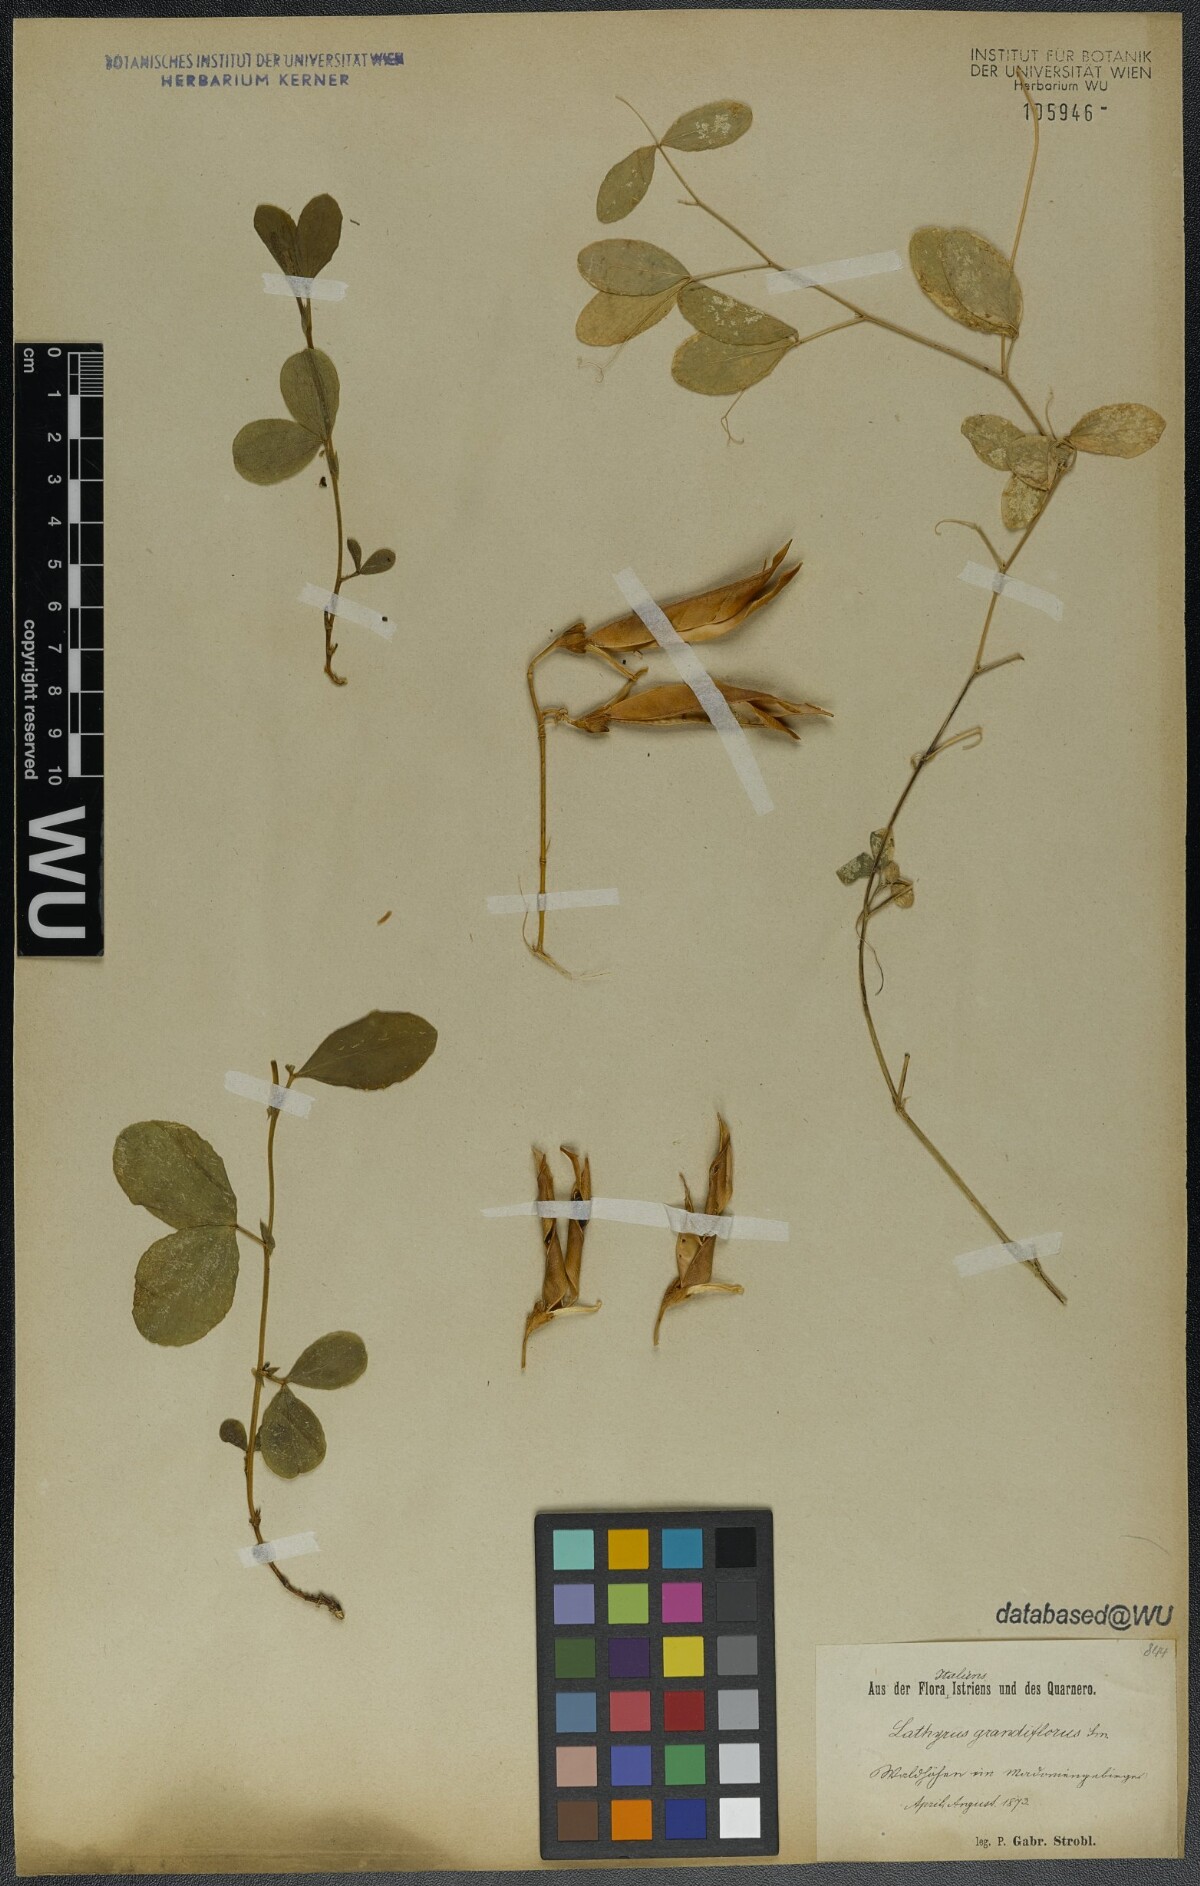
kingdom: Plantae
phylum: Tracheophyta
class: Magnoliopsida
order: Fabales
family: Fabaceae
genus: Lathyrus
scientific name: Lathyrus grandiflorus
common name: Two-flowered everlasting-pea
